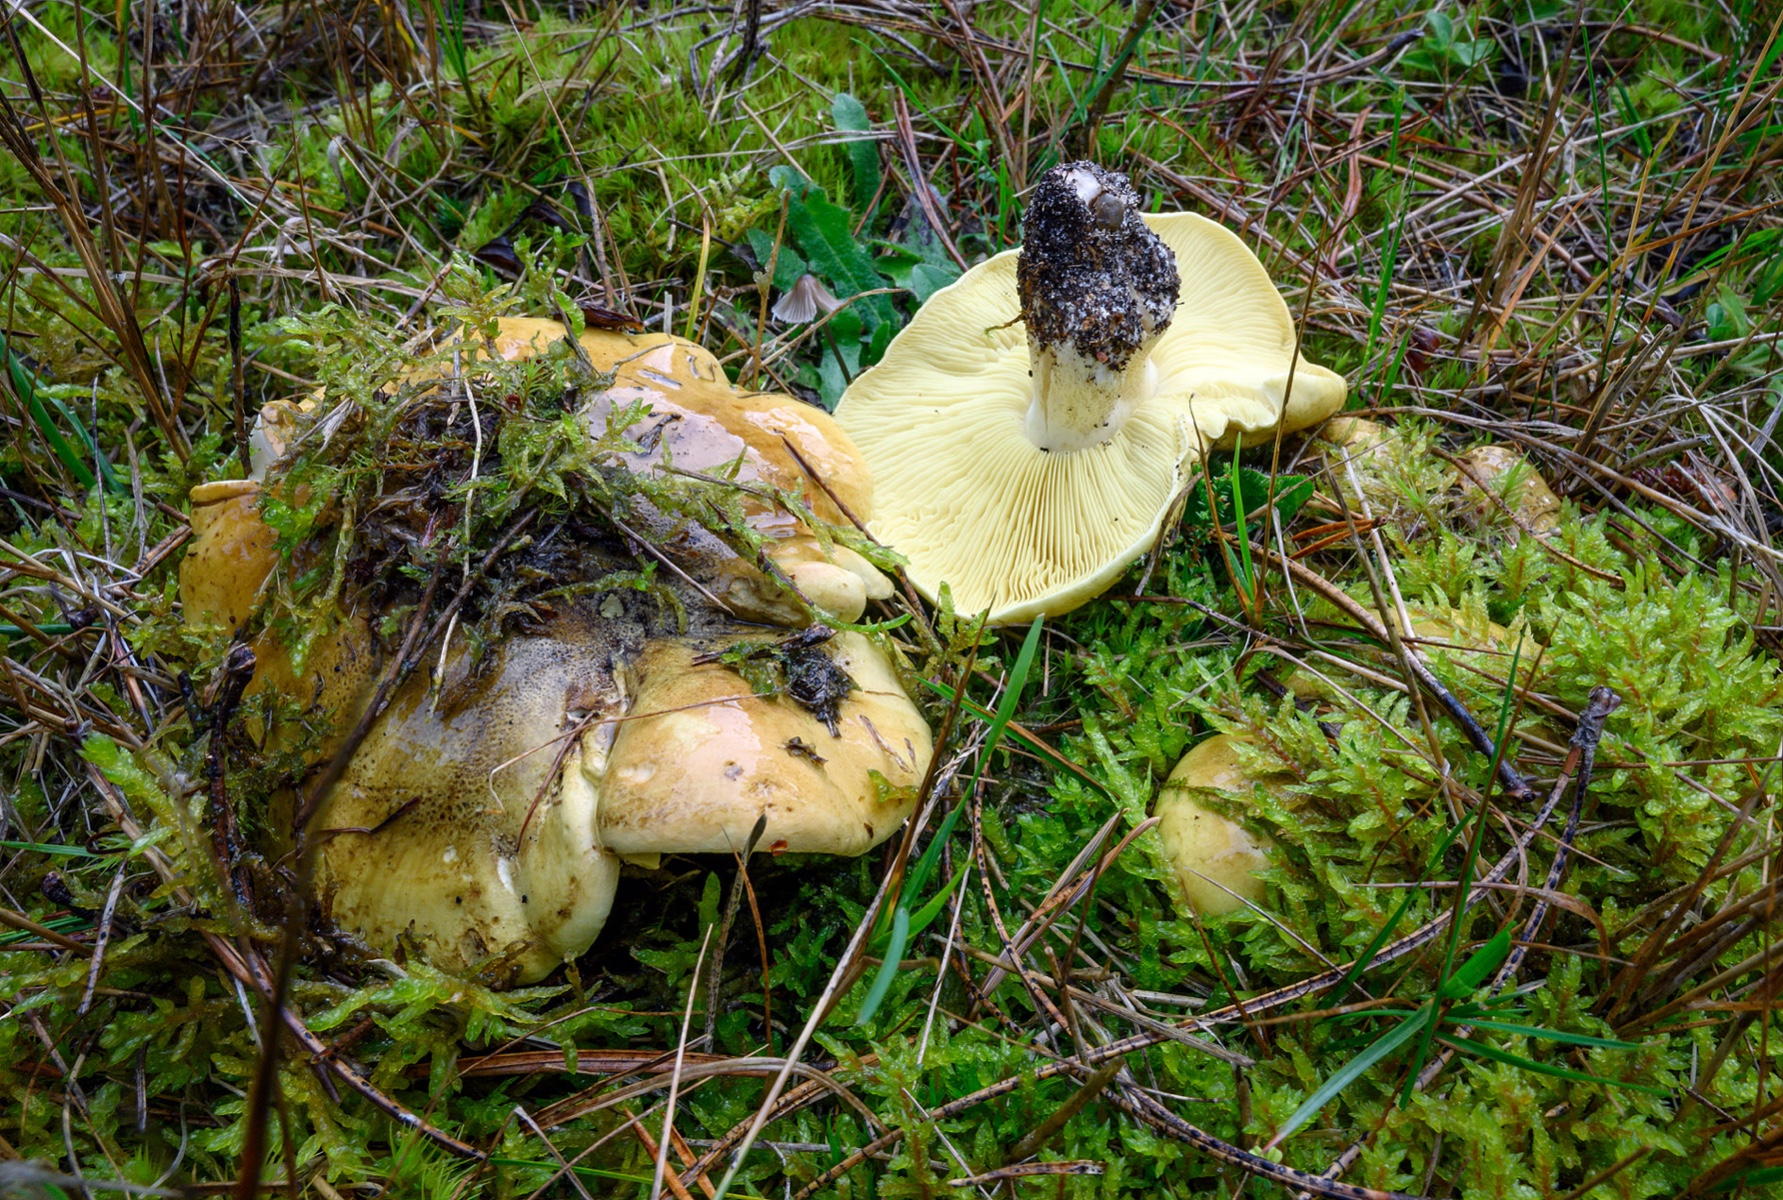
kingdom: Fungi
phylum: Basidiomycota
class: Agaricomycetes
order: Agaricales
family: Tricholomataceae
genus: Tricholoma
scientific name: Tricholoma equestre
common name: ægte ridderhat
